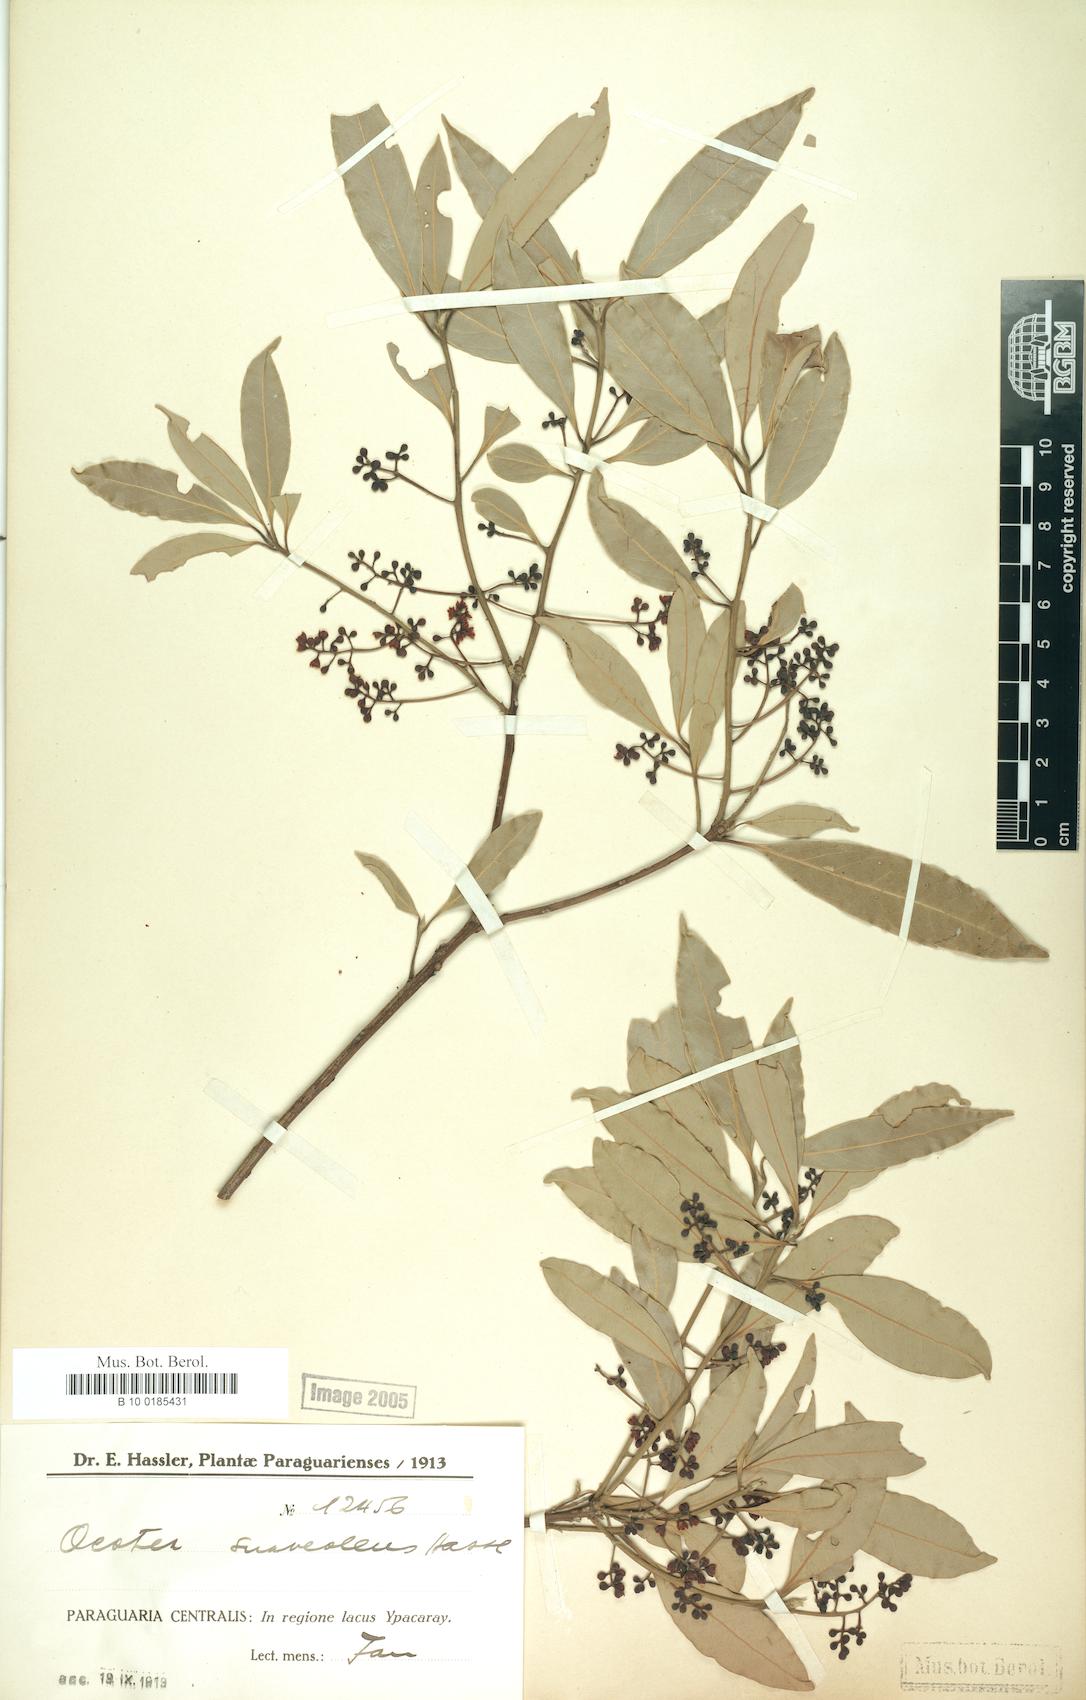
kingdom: Plantae
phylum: Tracheophyta
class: Magnoliopsida
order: Laurales
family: Lauraceae
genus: Ocotea
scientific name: Ocotea diospyrifolia
